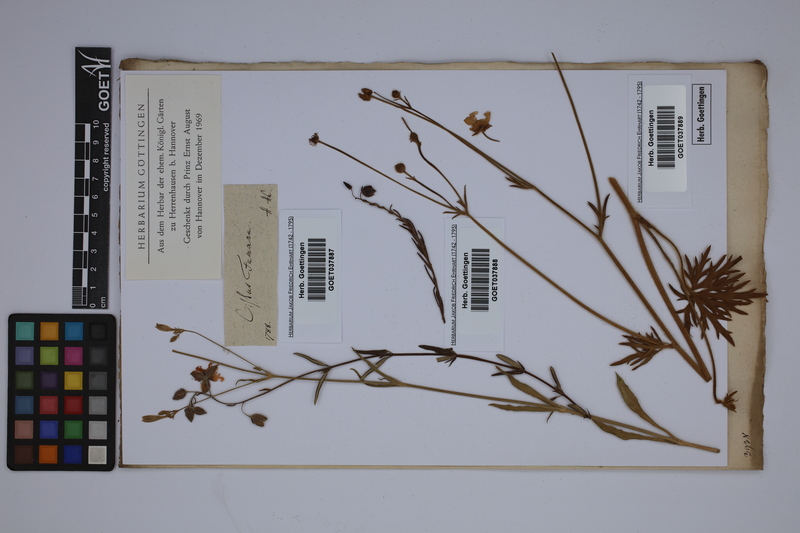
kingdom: Plantae
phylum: Tracheophyta
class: Magnoliopsida
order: Ranunculales
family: Ranunculaceae
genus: Ranunculus
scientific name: Ranunculus
